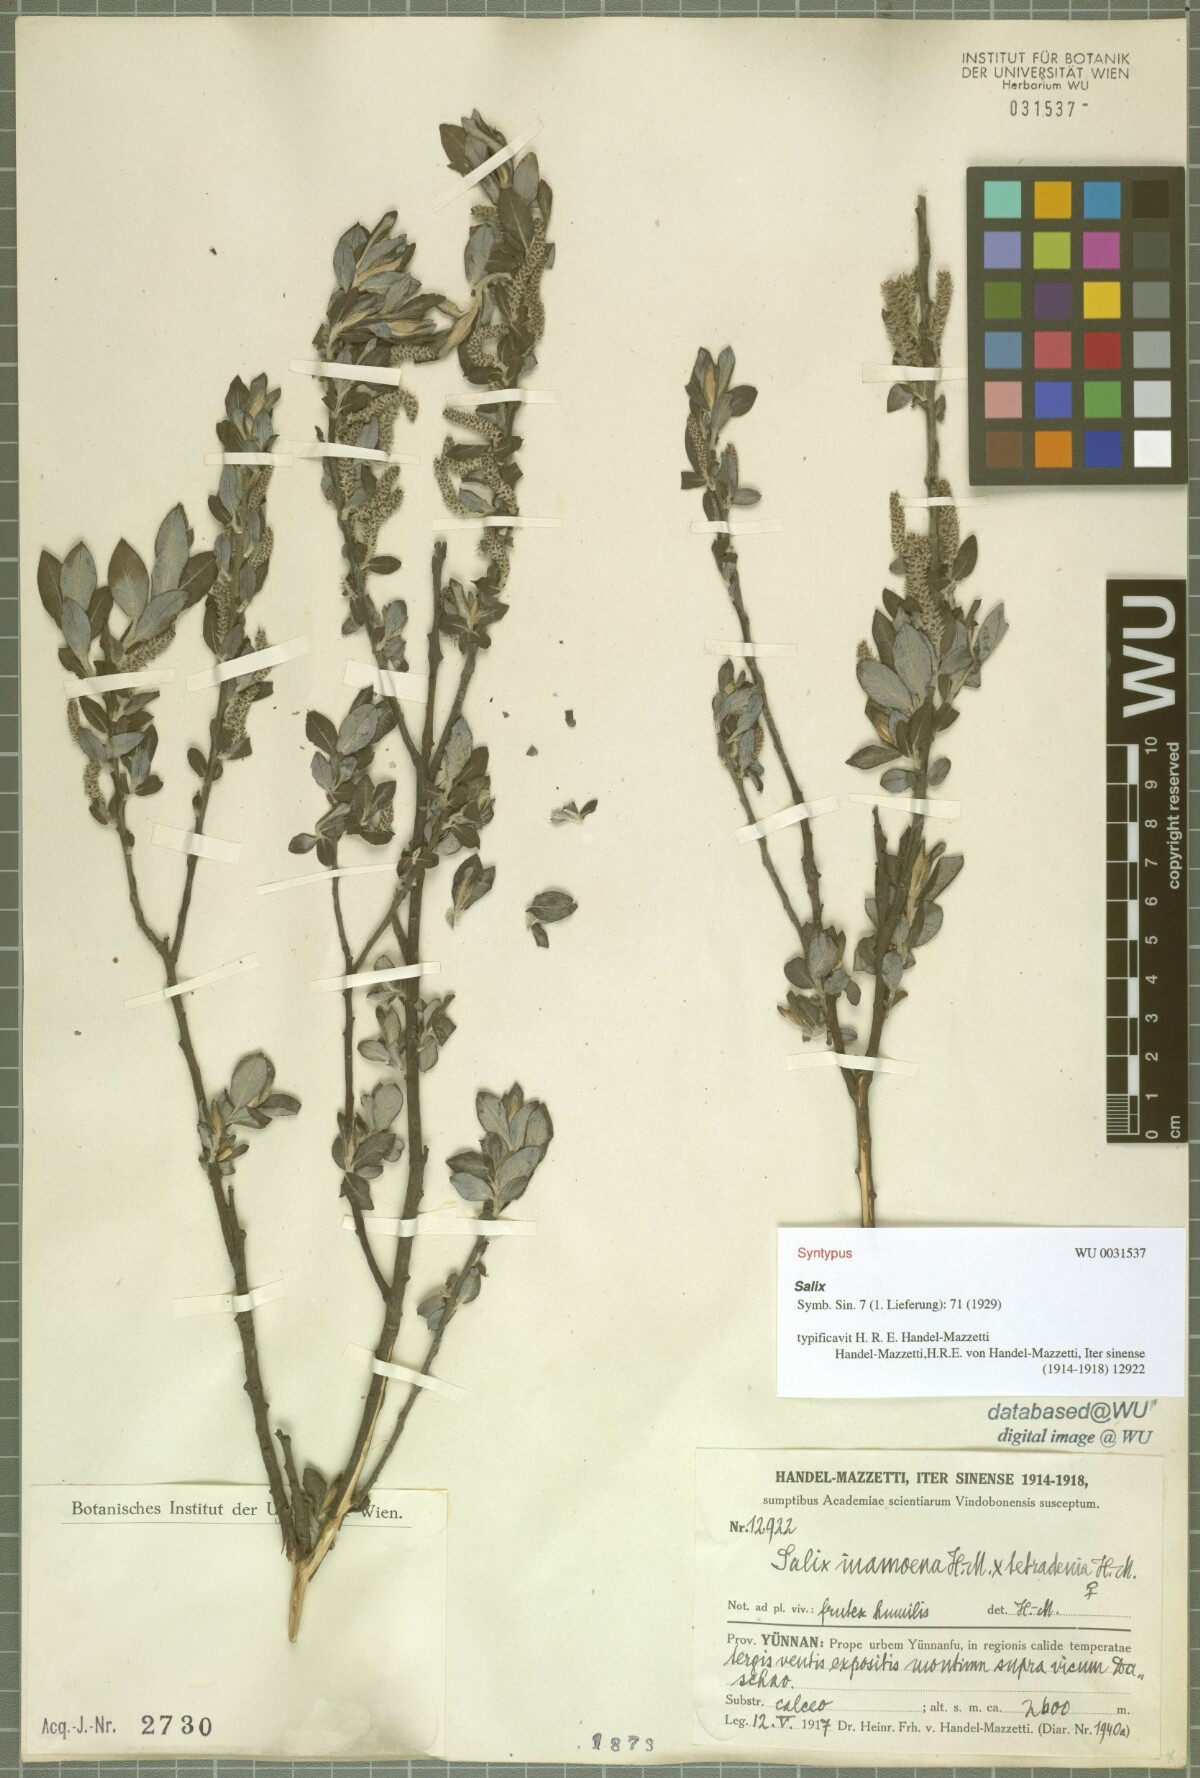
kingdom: Plantae
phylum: Tracheophyta
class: Magnoliopsida
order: Malpighiales
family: Salicaceae
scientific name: Salicaceae
